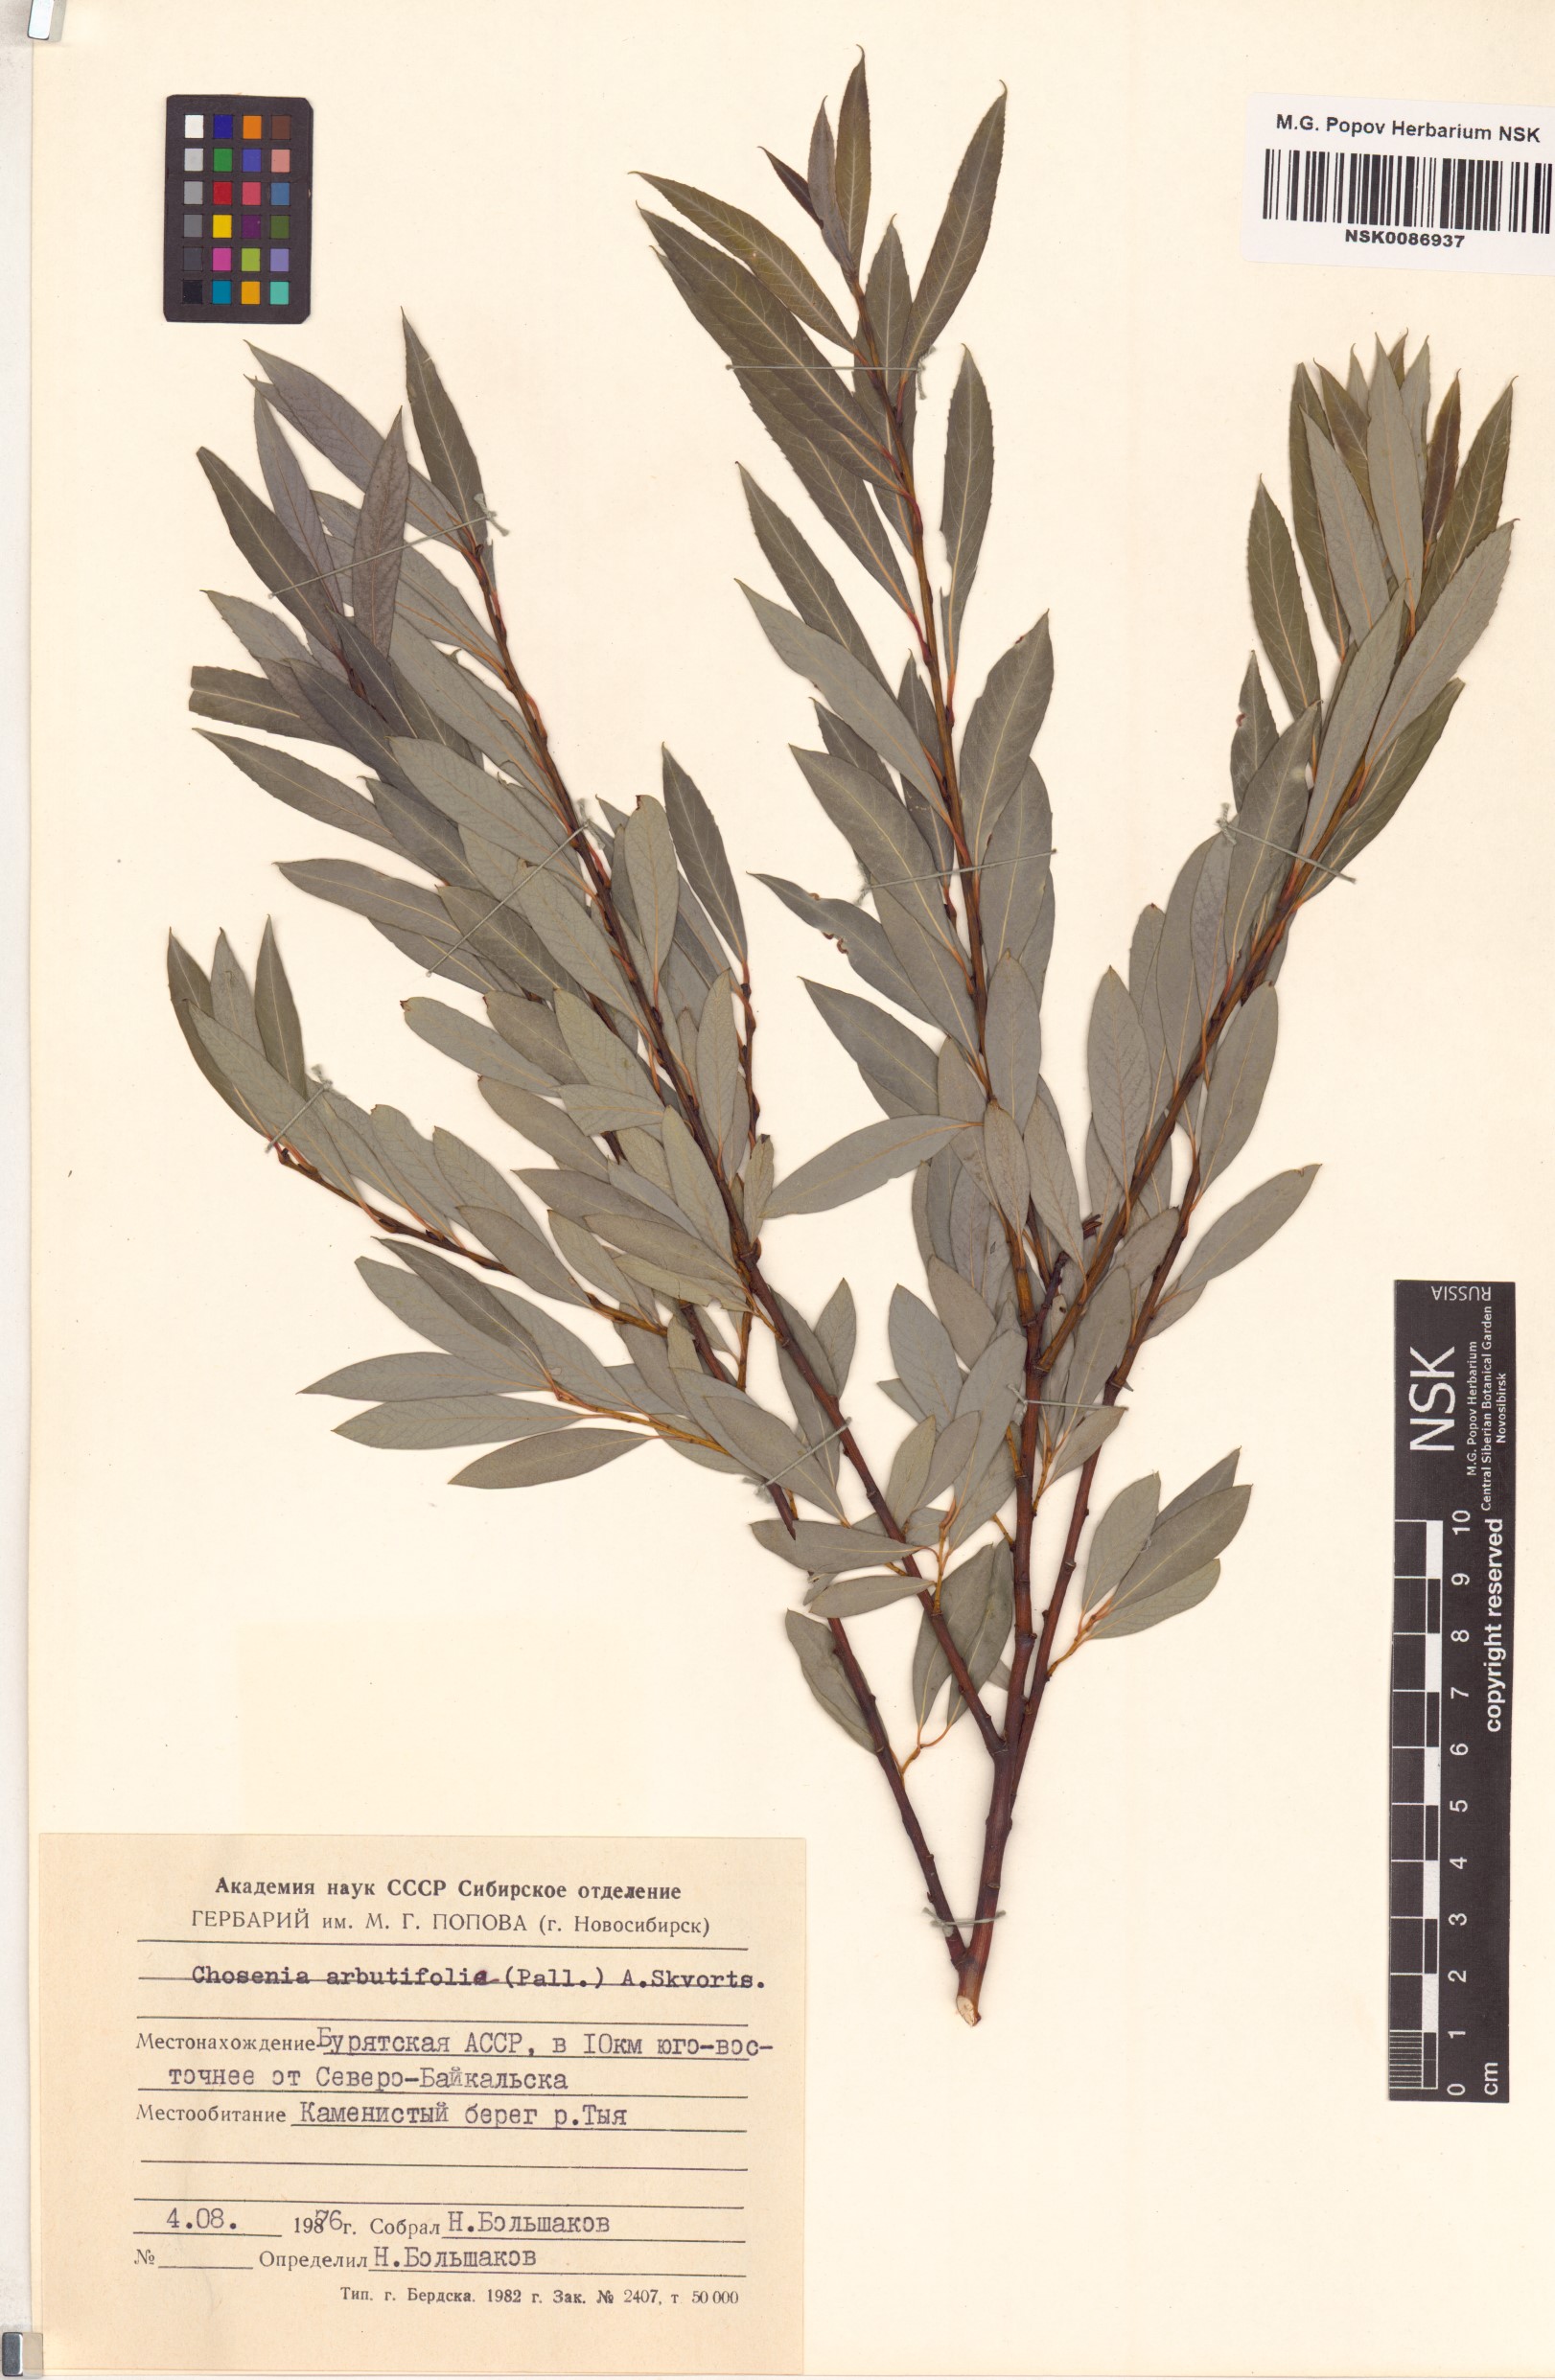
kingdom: Plantae
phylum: Tracheophyta
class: Magnoliopsida
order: Malpighiales
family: Salicaceae
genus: Chosenia
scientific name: Chosenia arbutifolia
